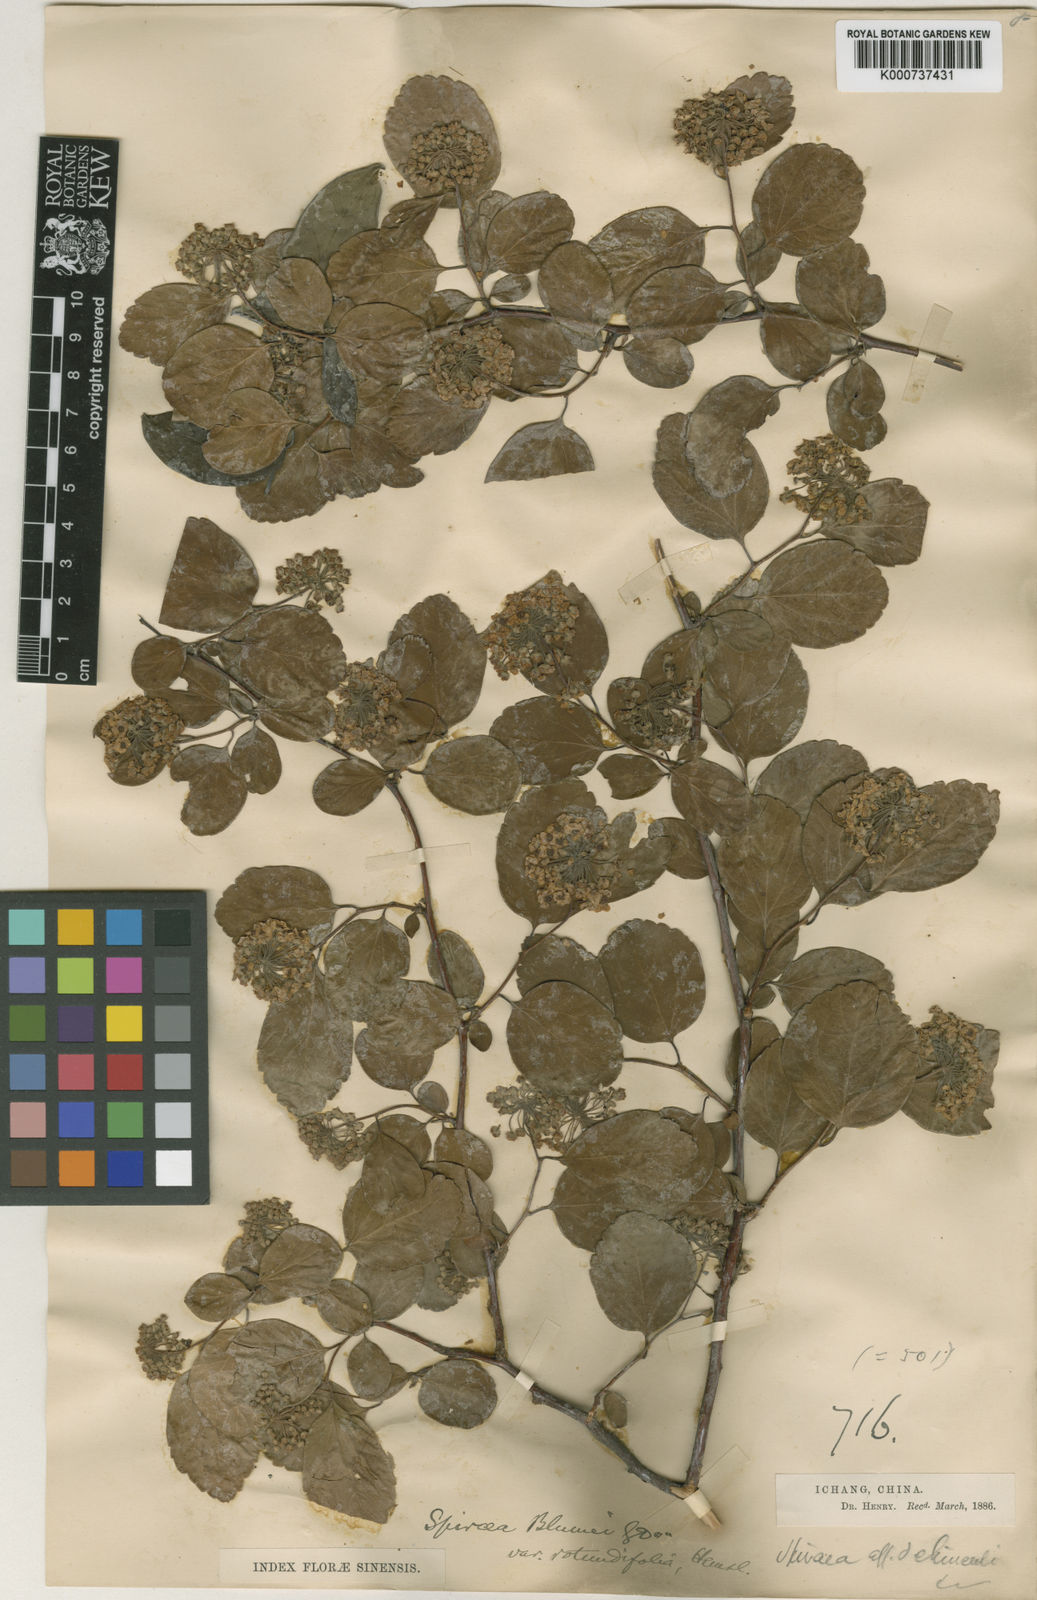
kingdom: Plantae
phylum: Tracheophyta
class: Magnoliopsida
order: Rosales
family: Rosaceae
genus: Spiraea
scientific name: Spiraea
